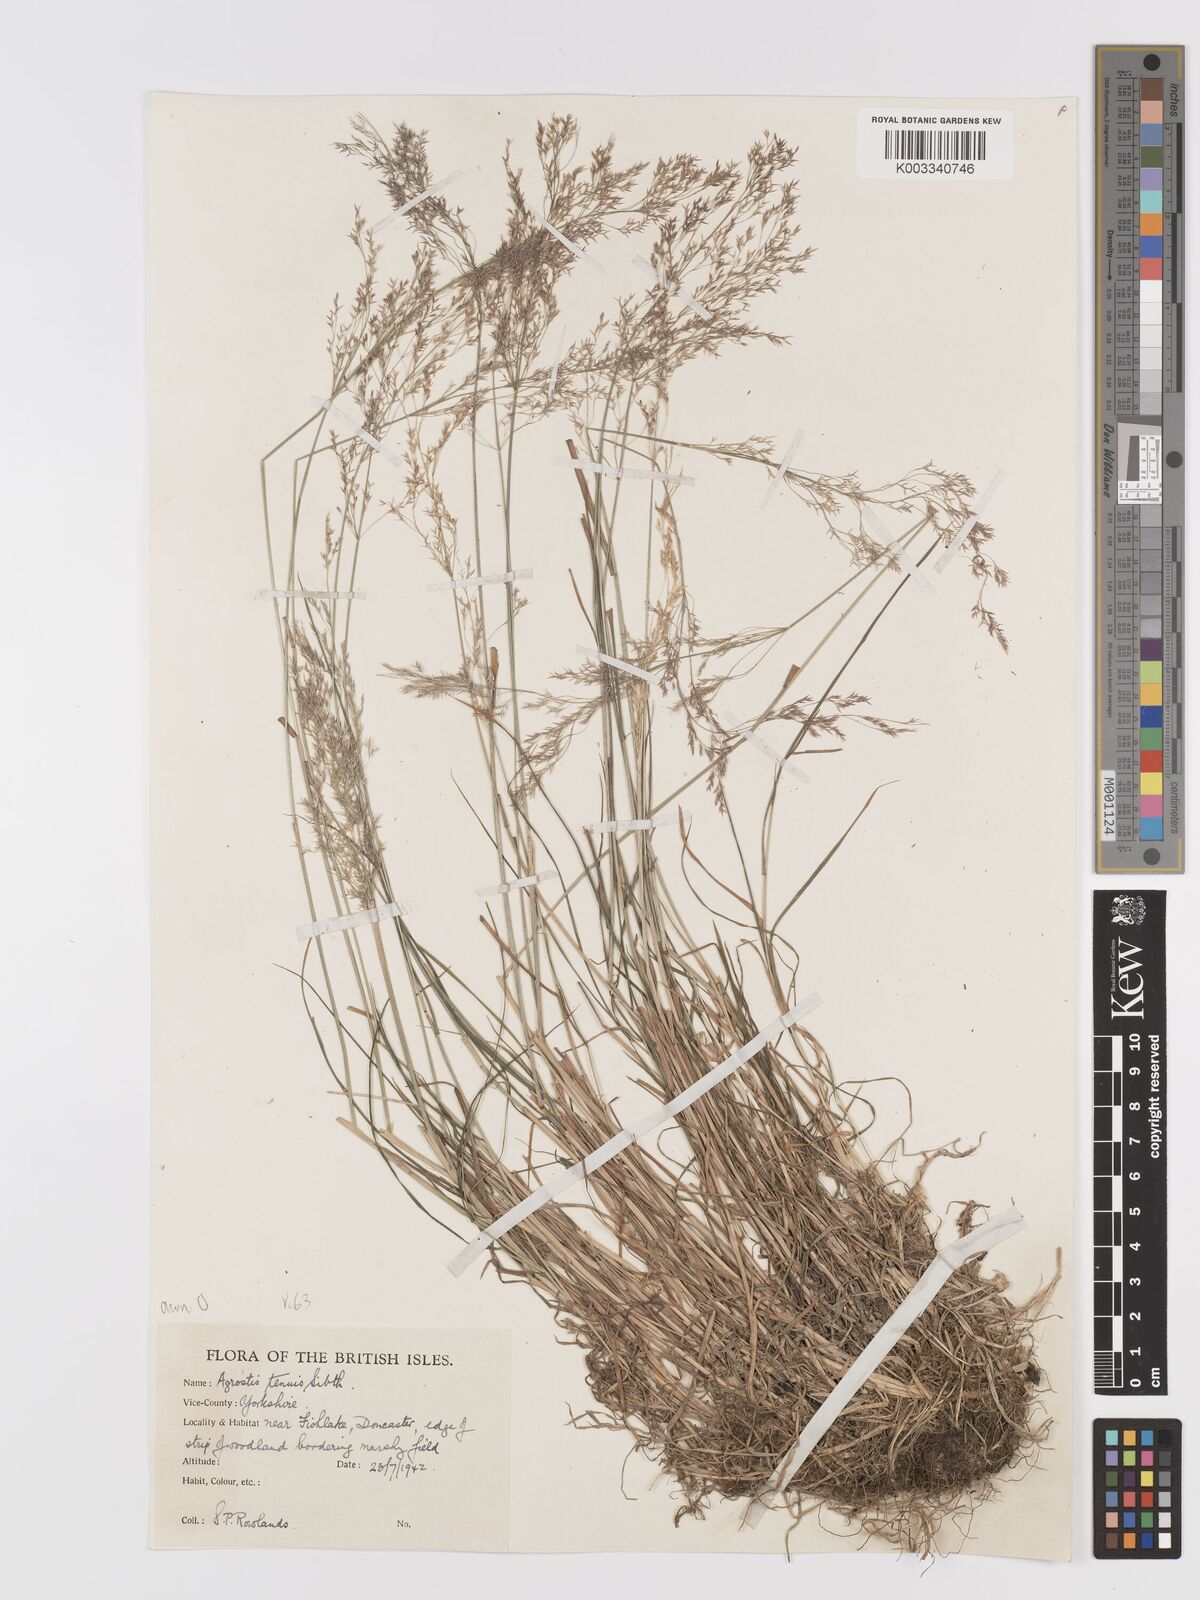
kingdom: Plantae
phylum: Tracheophyta
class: Liliopsida
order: Poales
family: Poaceae
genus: Agrostis
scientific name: Agrostis capillaris
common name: Colonial bentgrass
